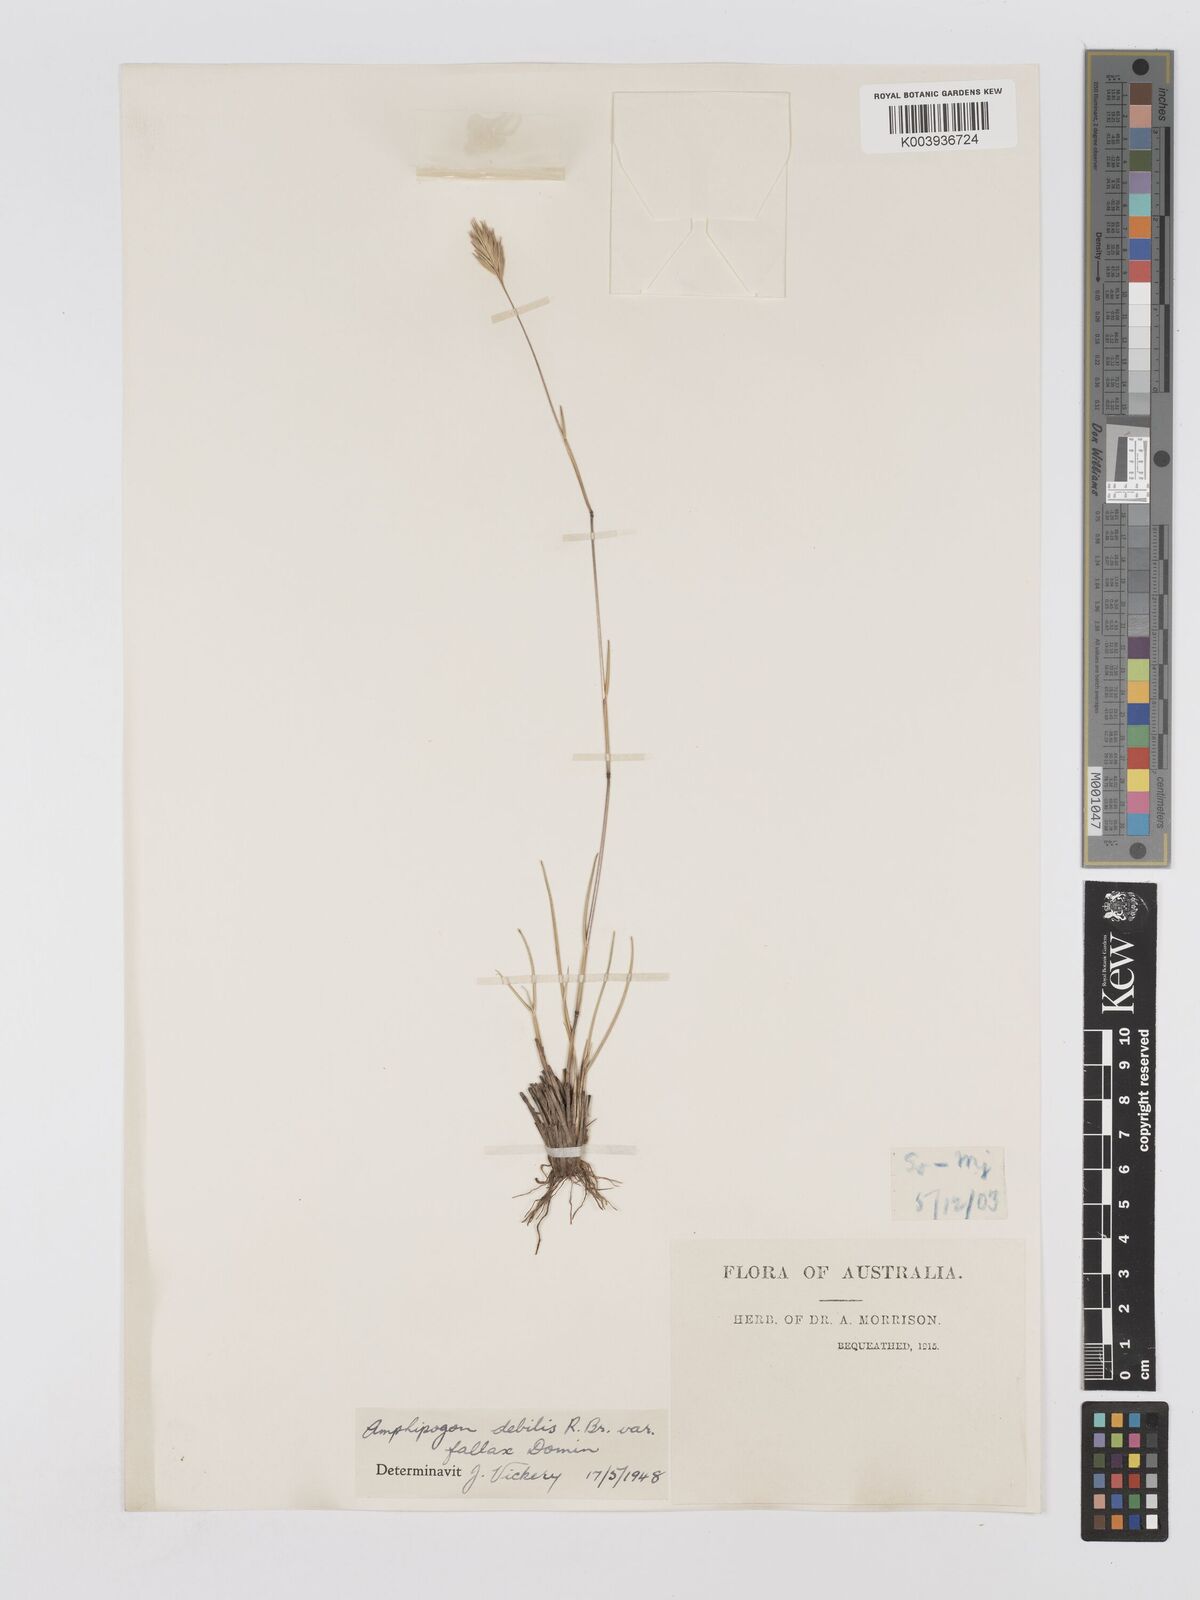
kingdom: Plantae
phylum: Tracheophyta
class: Liliopsida
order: Poales
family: Poaceae
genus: Amphipogon
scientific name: Amphipogon debilis
